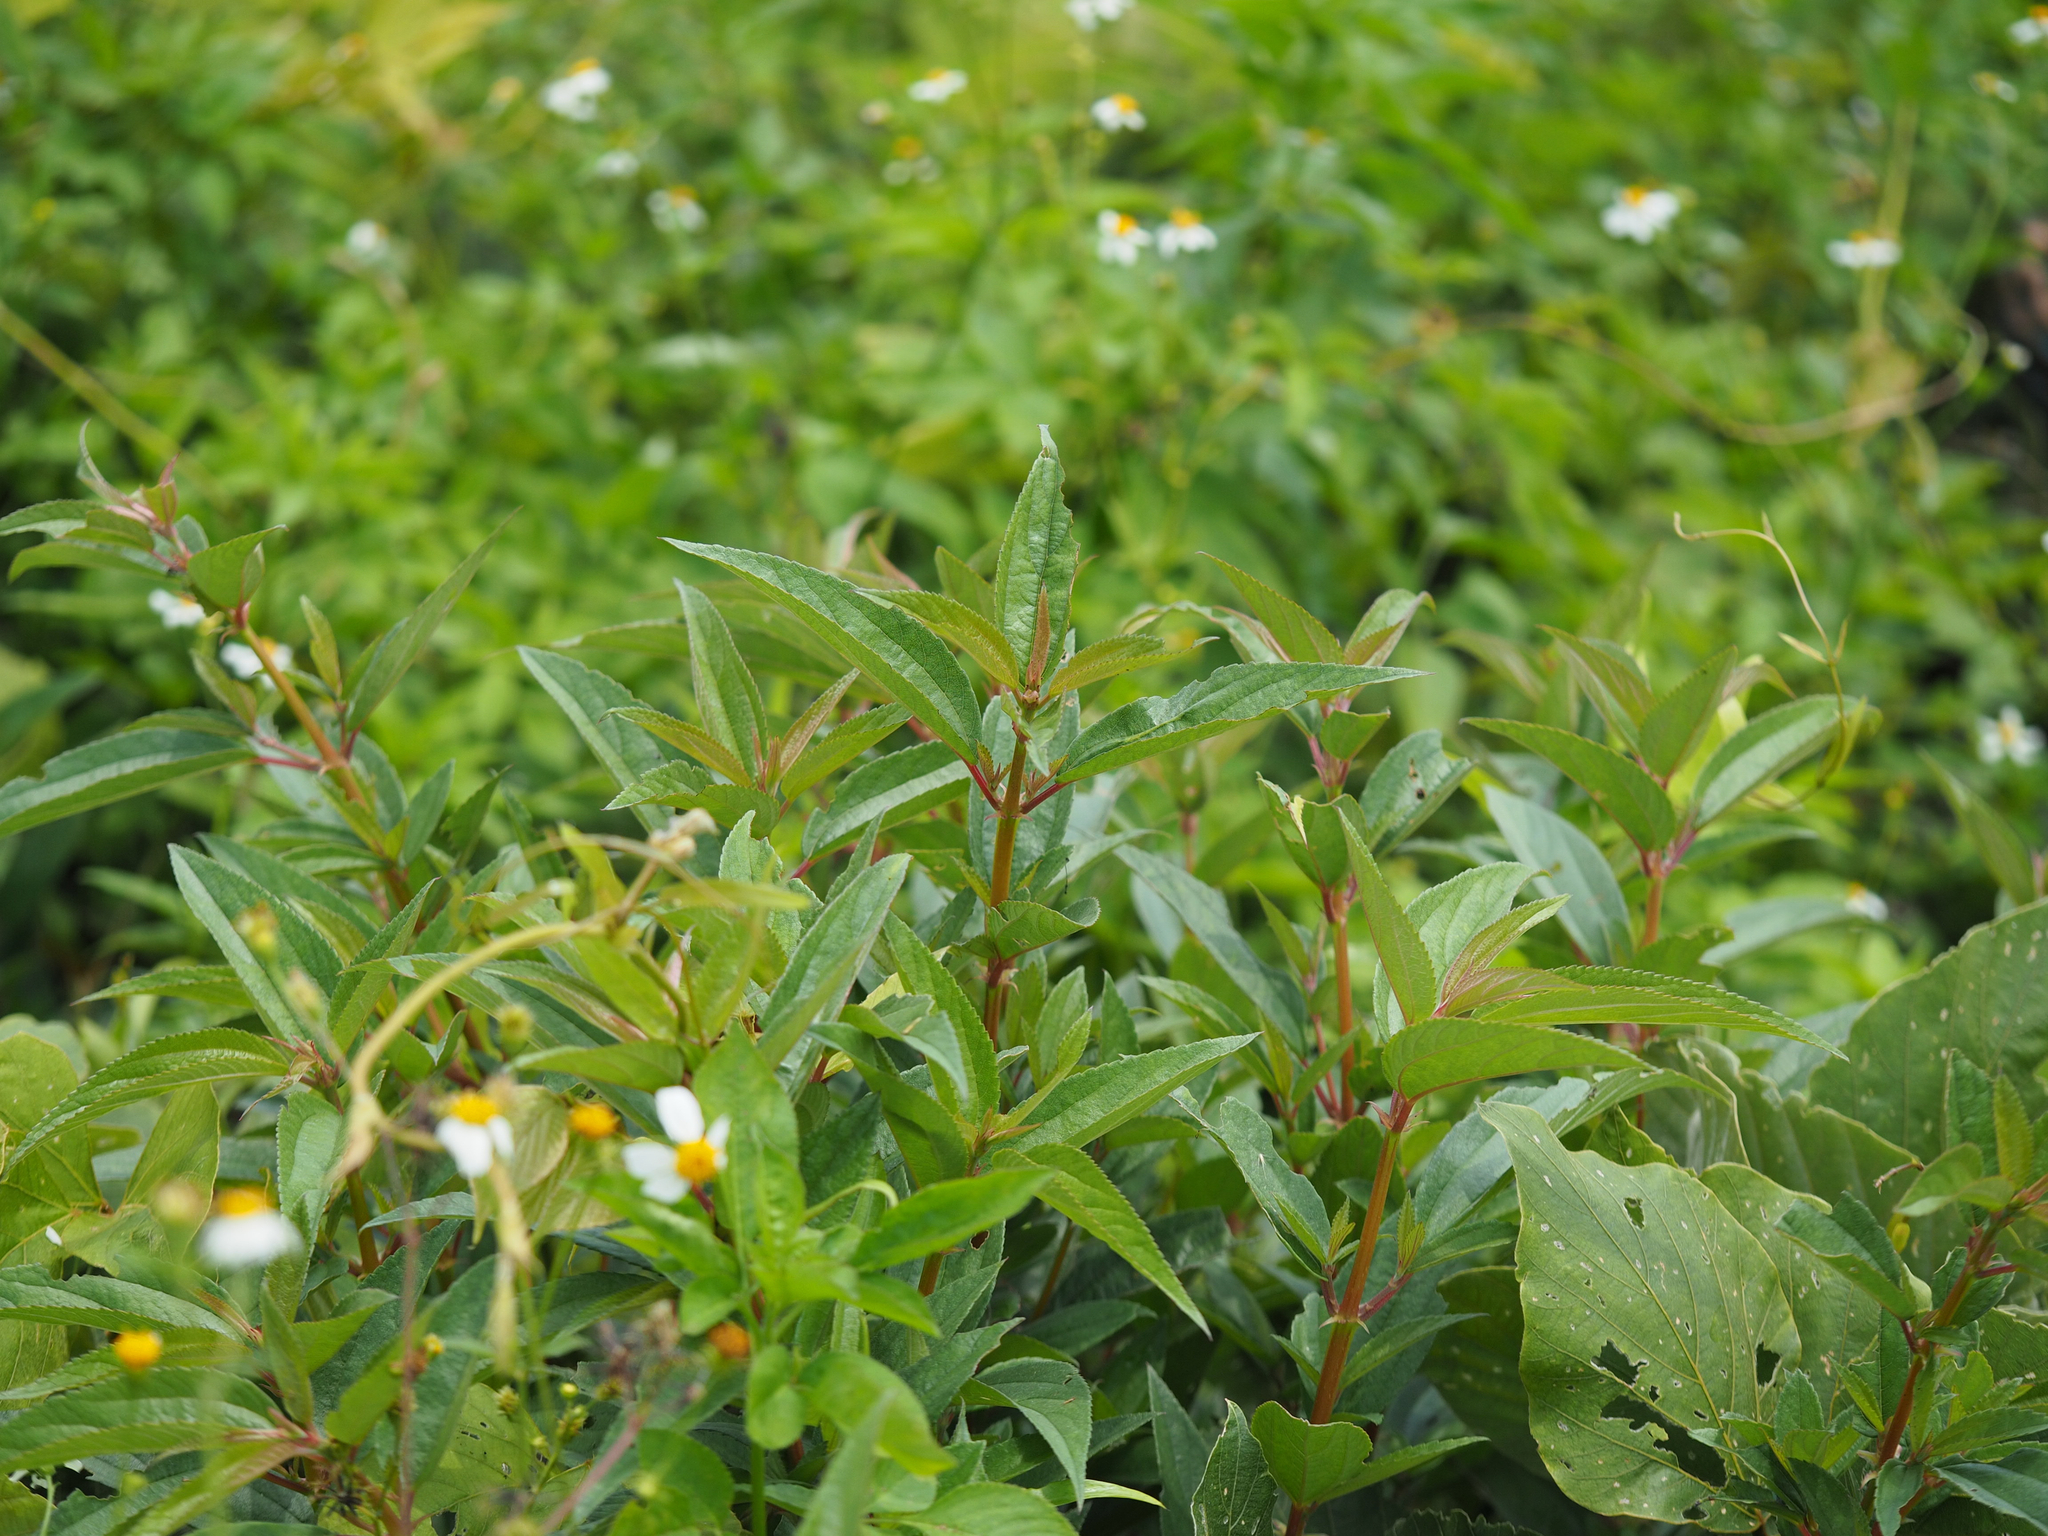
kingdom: Plantae
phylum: Tracheophyta
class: Magnoliopsida
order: Rosales
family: Urticaceae
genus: Boehmeria
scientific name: Boehmeria densiflora
